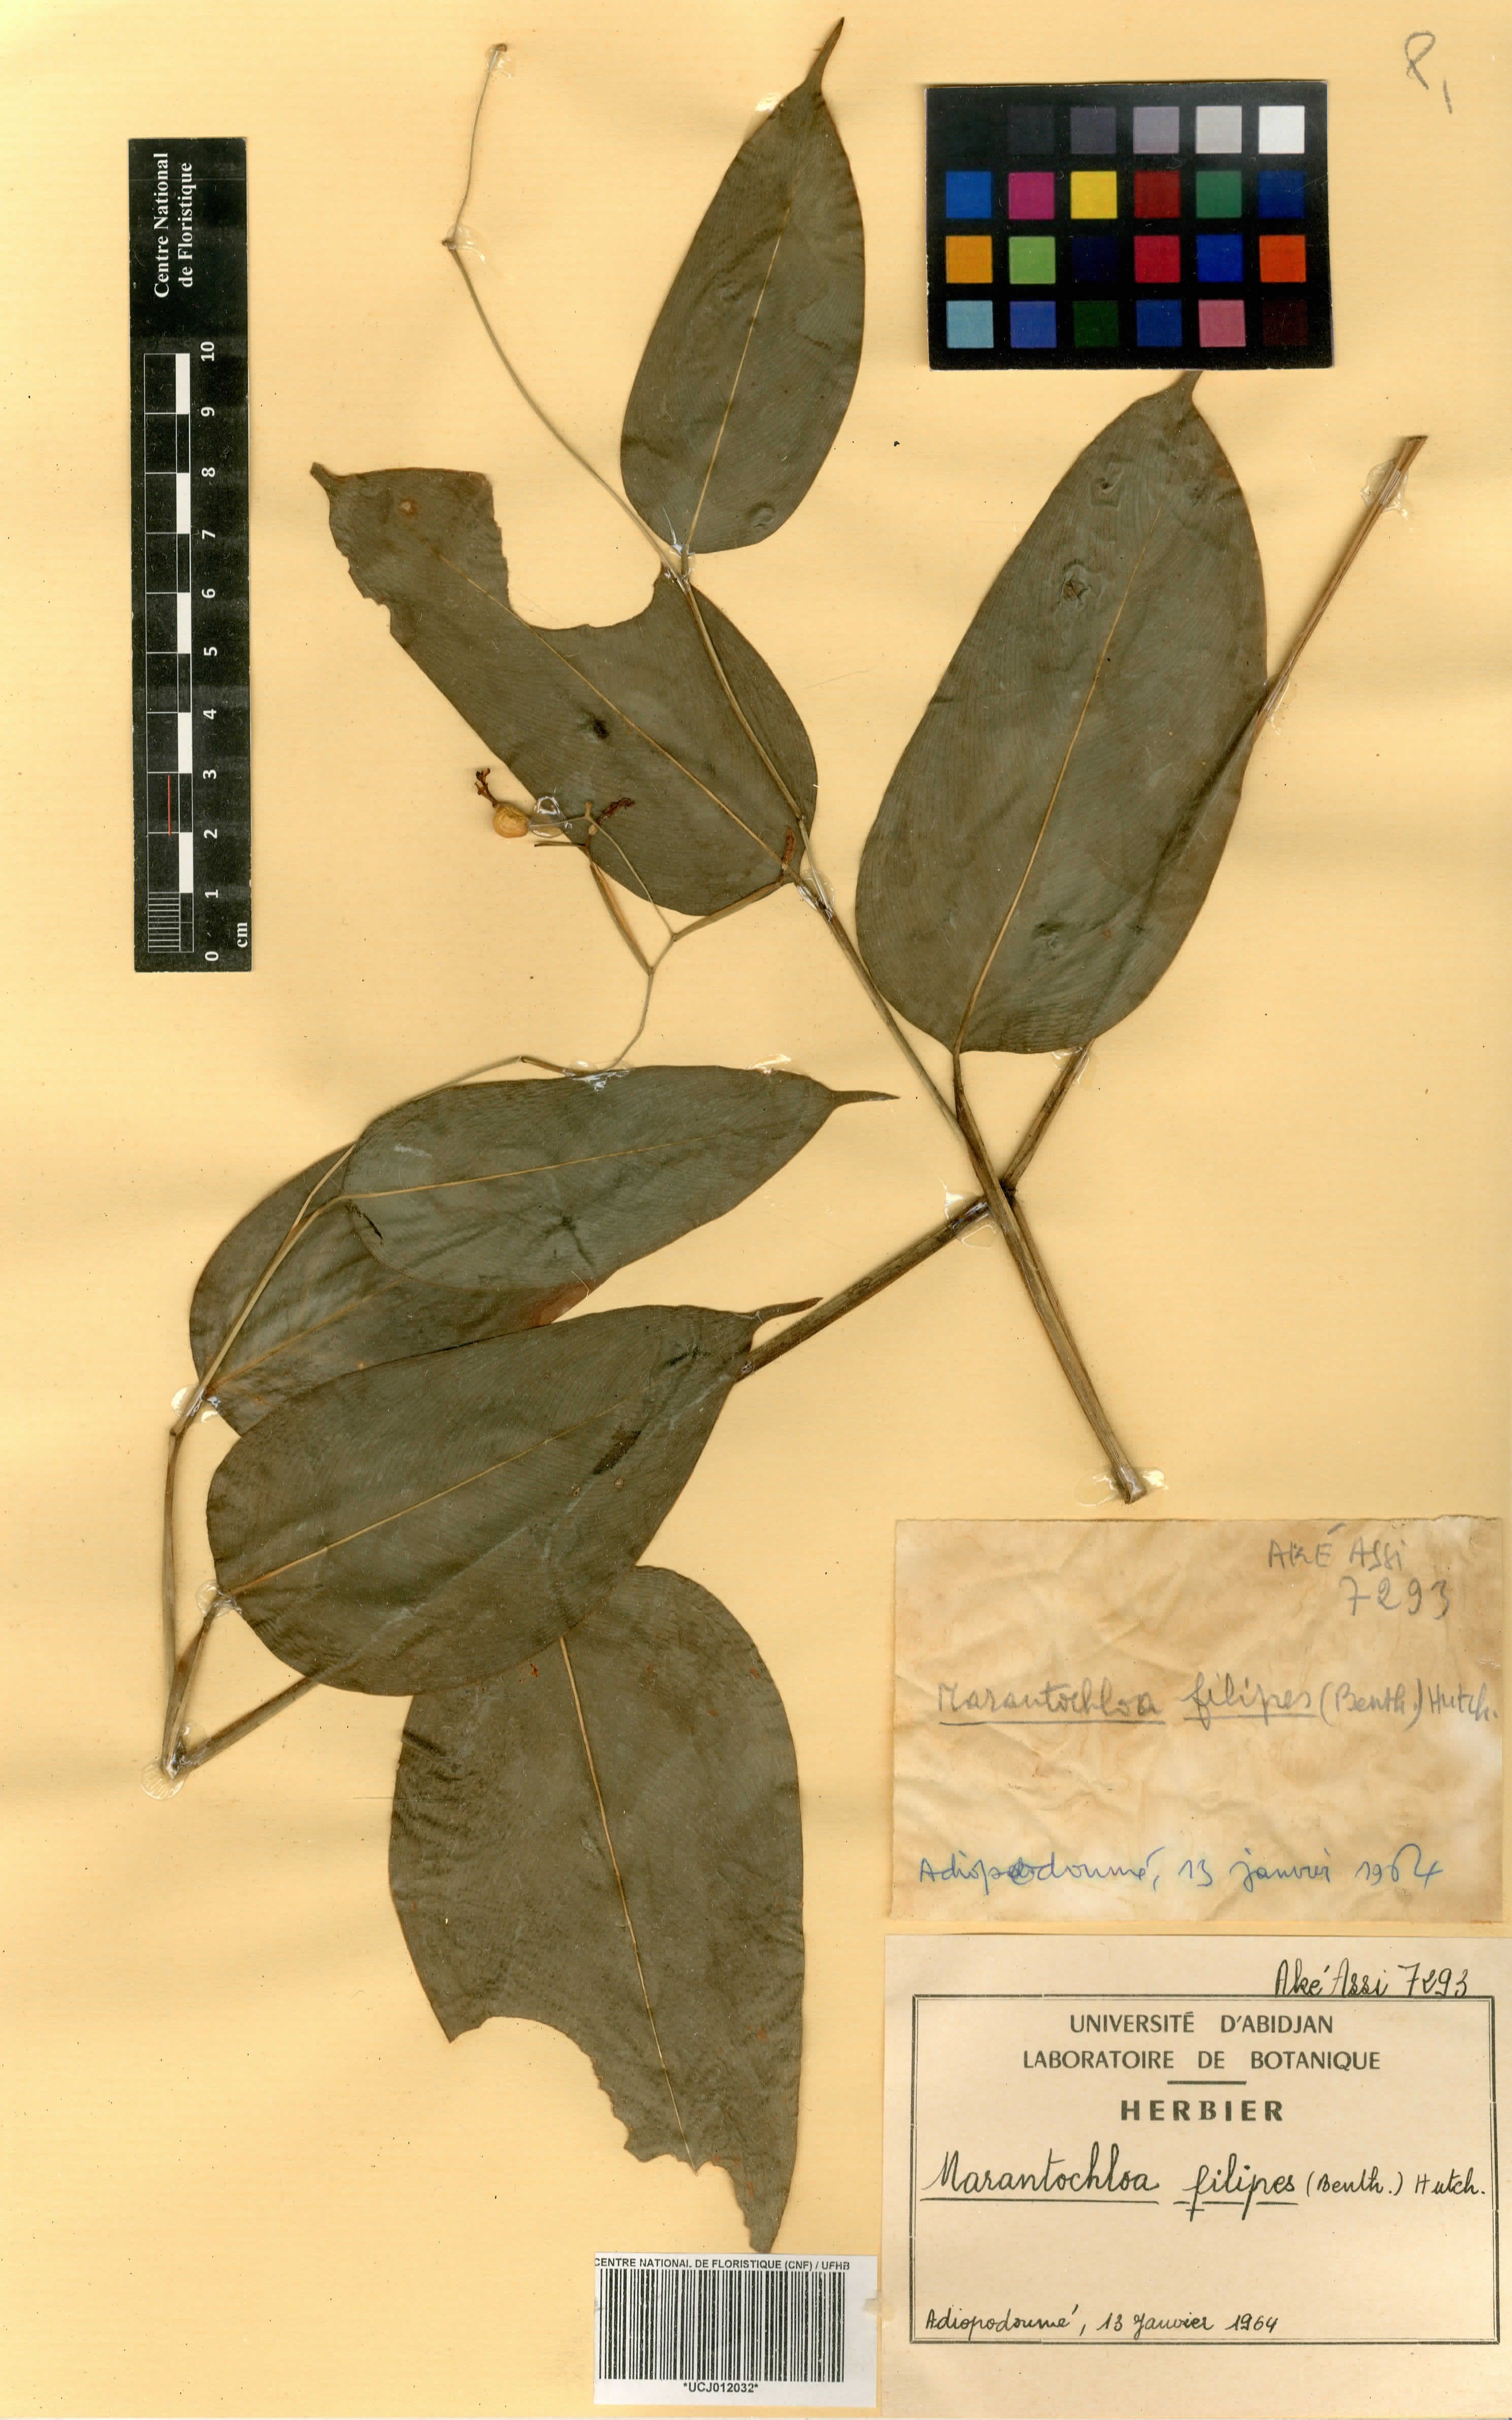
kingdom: Plantae
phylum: Tracheophyta
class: Liliopsida
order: Zingiberales
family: Marantaceae
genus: Marantochloa
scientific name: Marantochloa filipes
